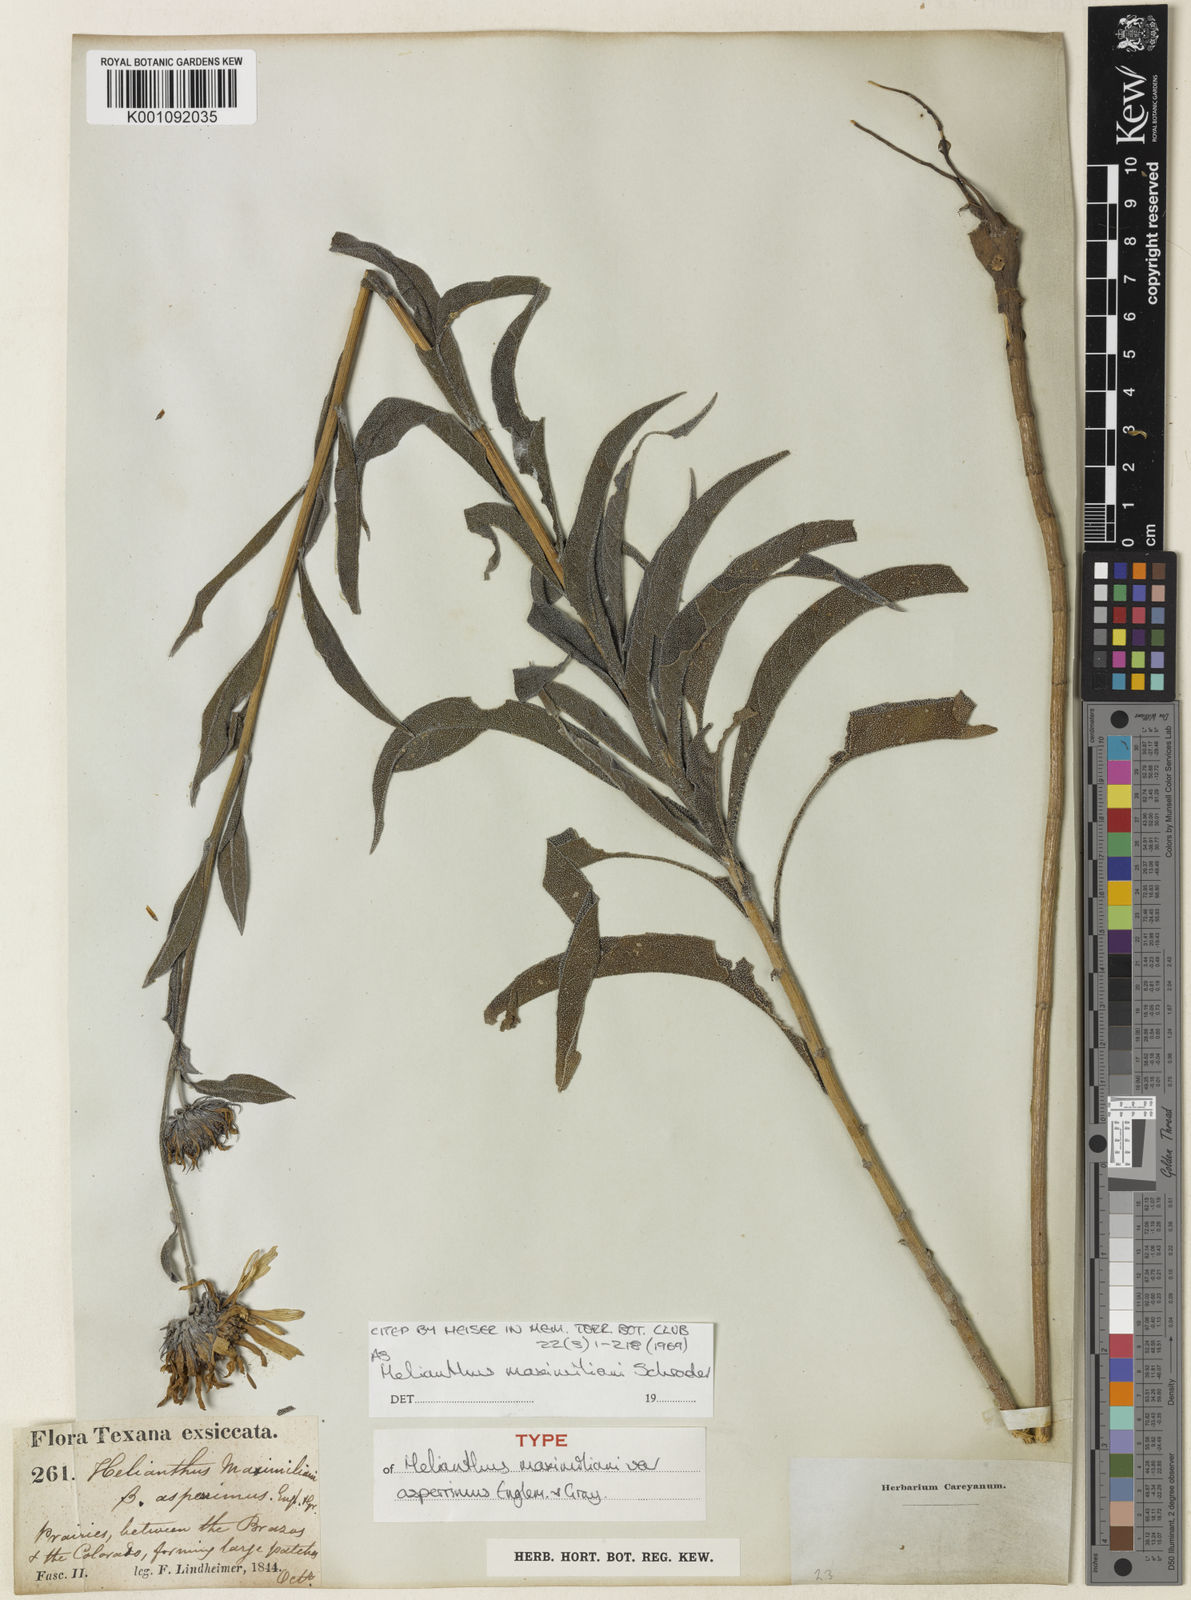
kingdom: Plantae
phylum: Tracheophyta
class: Magnoliopsida
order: Asterales
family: Asteraceae
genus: Helianthus
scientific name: Helianthus maximiliani
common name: Maximilian's sunflower
